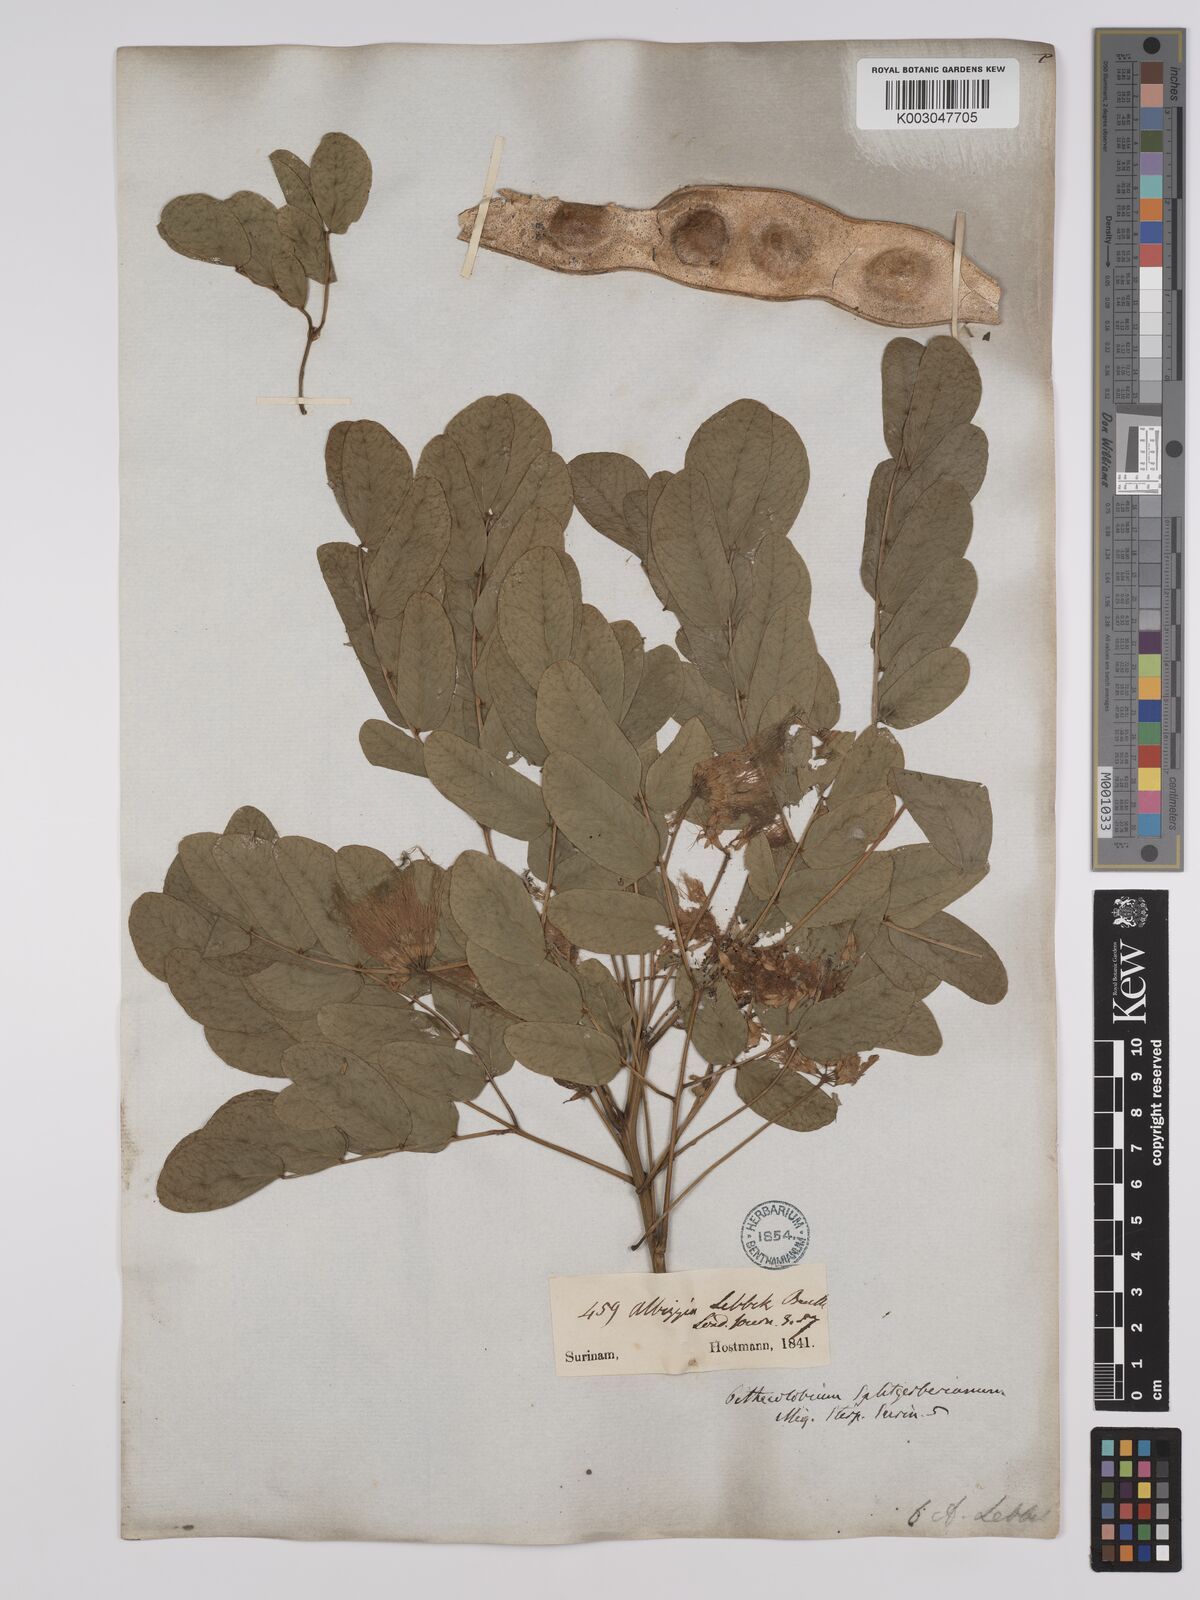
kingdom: Plantae
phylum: Tracheophyta
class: Magnoliopsida
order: Fabales
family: Fabaceae
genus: Albizia
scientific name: Albizia lebbeck
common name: Woman's tongue
